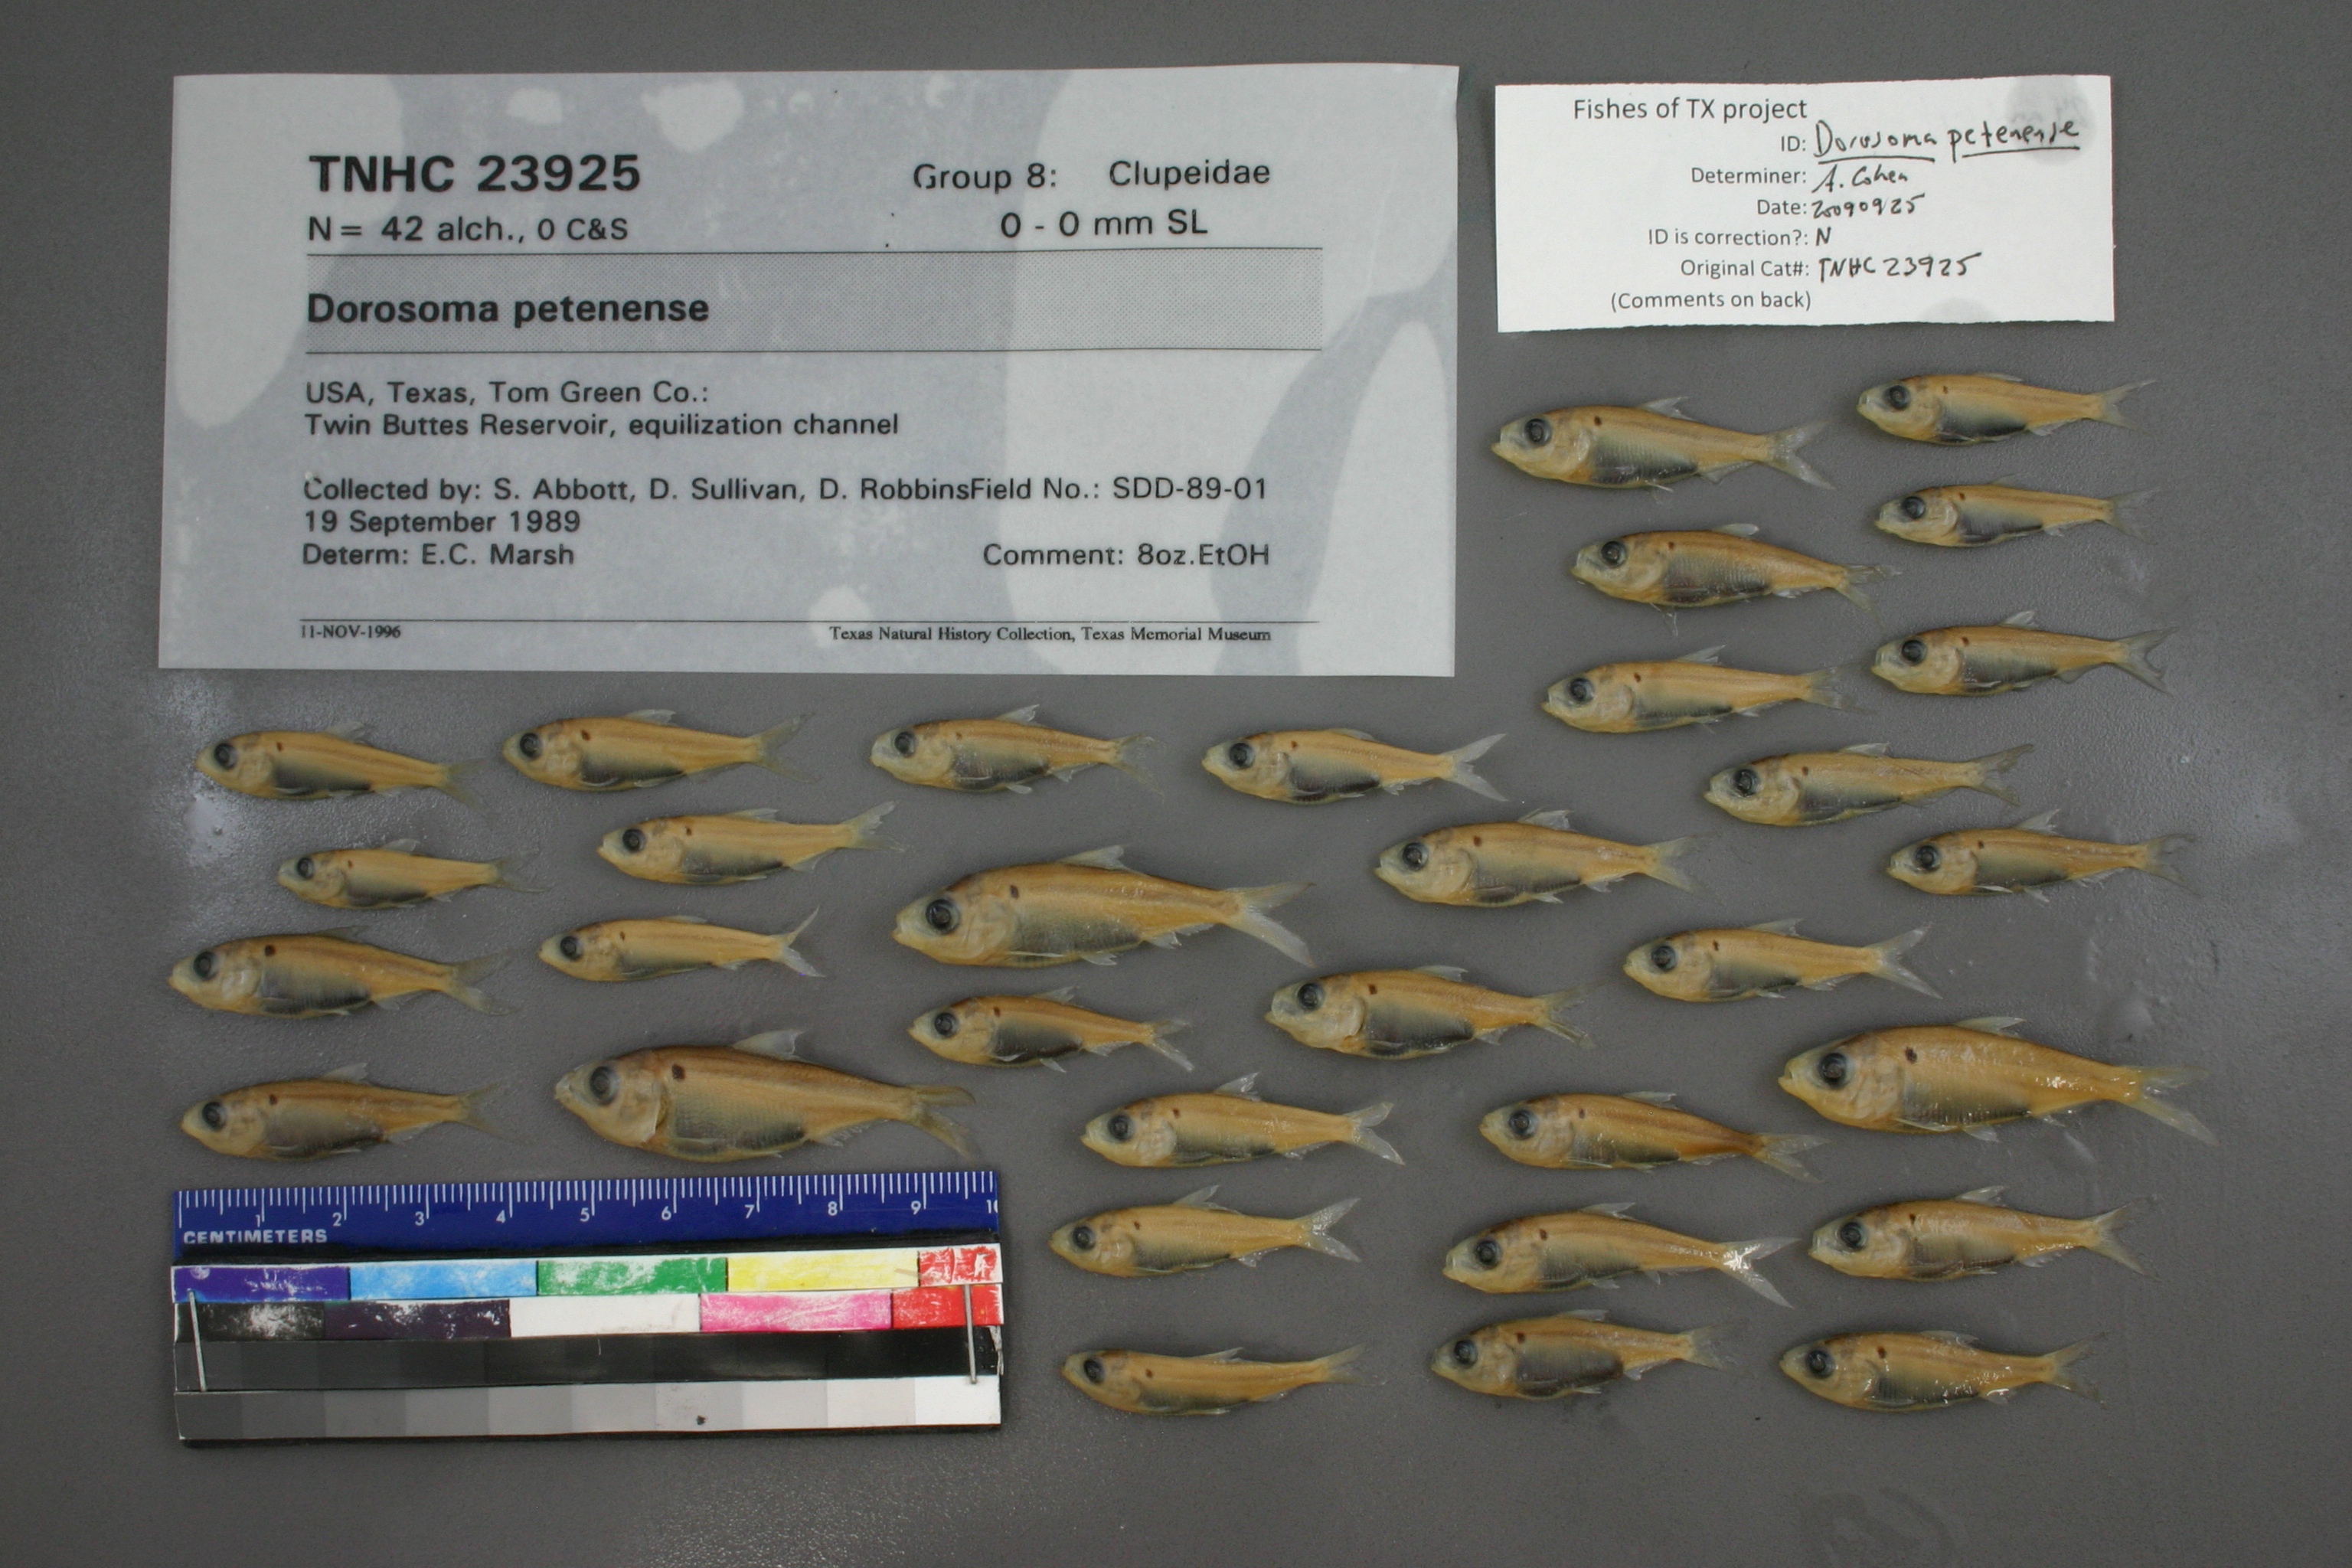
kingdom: Animalia
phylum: Chordata
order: Clupeiformes
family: Clupeidae
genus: Dorosoma
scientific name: Dorosoma petenense
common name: Threadfin shad
